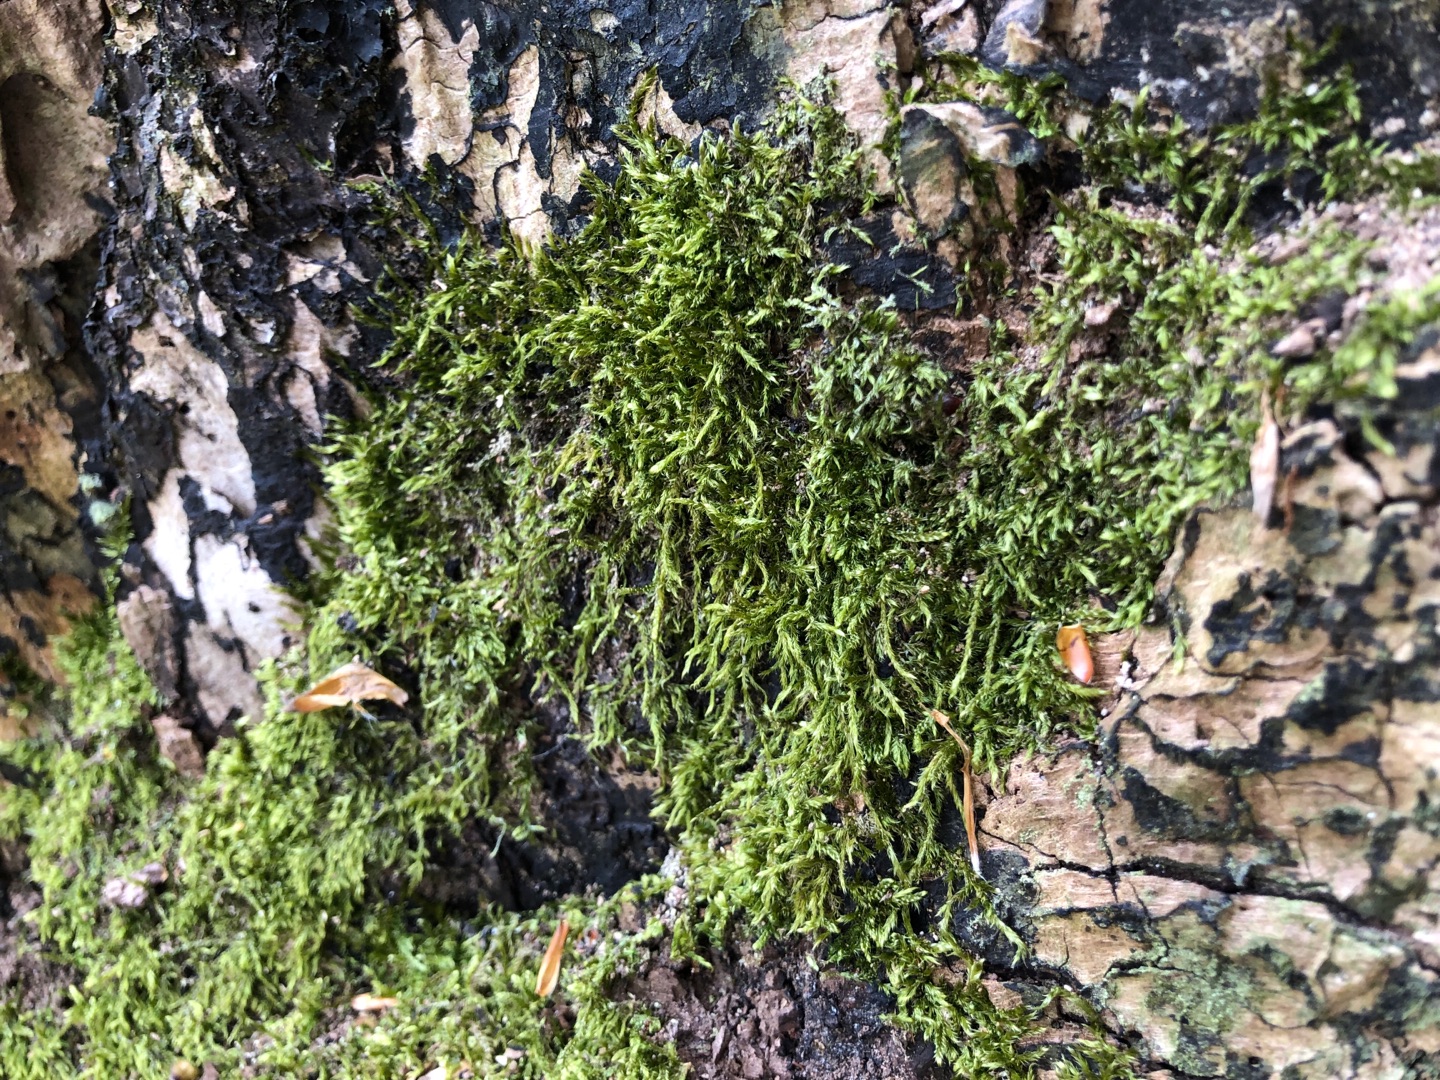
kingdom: Plantae
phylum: Bryophyta
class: Bryopsida
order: Hypnales
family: Hypnaceae
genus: Hypnum
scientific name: Hypnum
